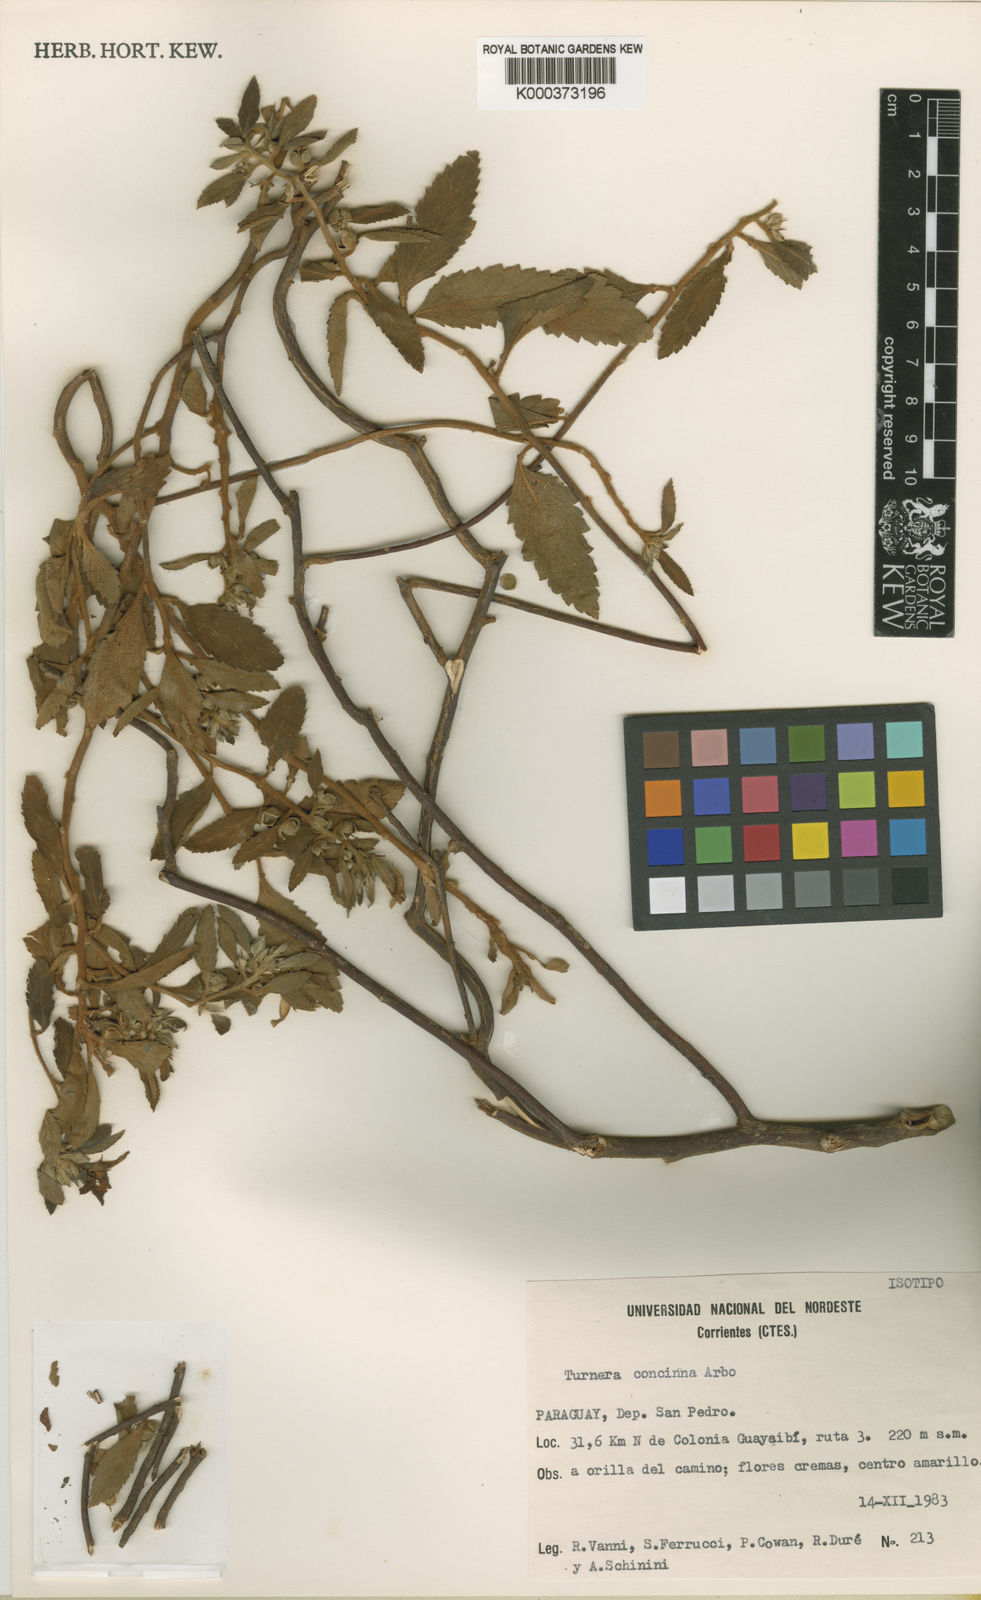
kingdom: Plantae
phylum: Tracheophyta
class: Magnoliopsida
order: Malpighiales
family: Turneraceae
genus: Turnera
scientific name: Turnera concinna
